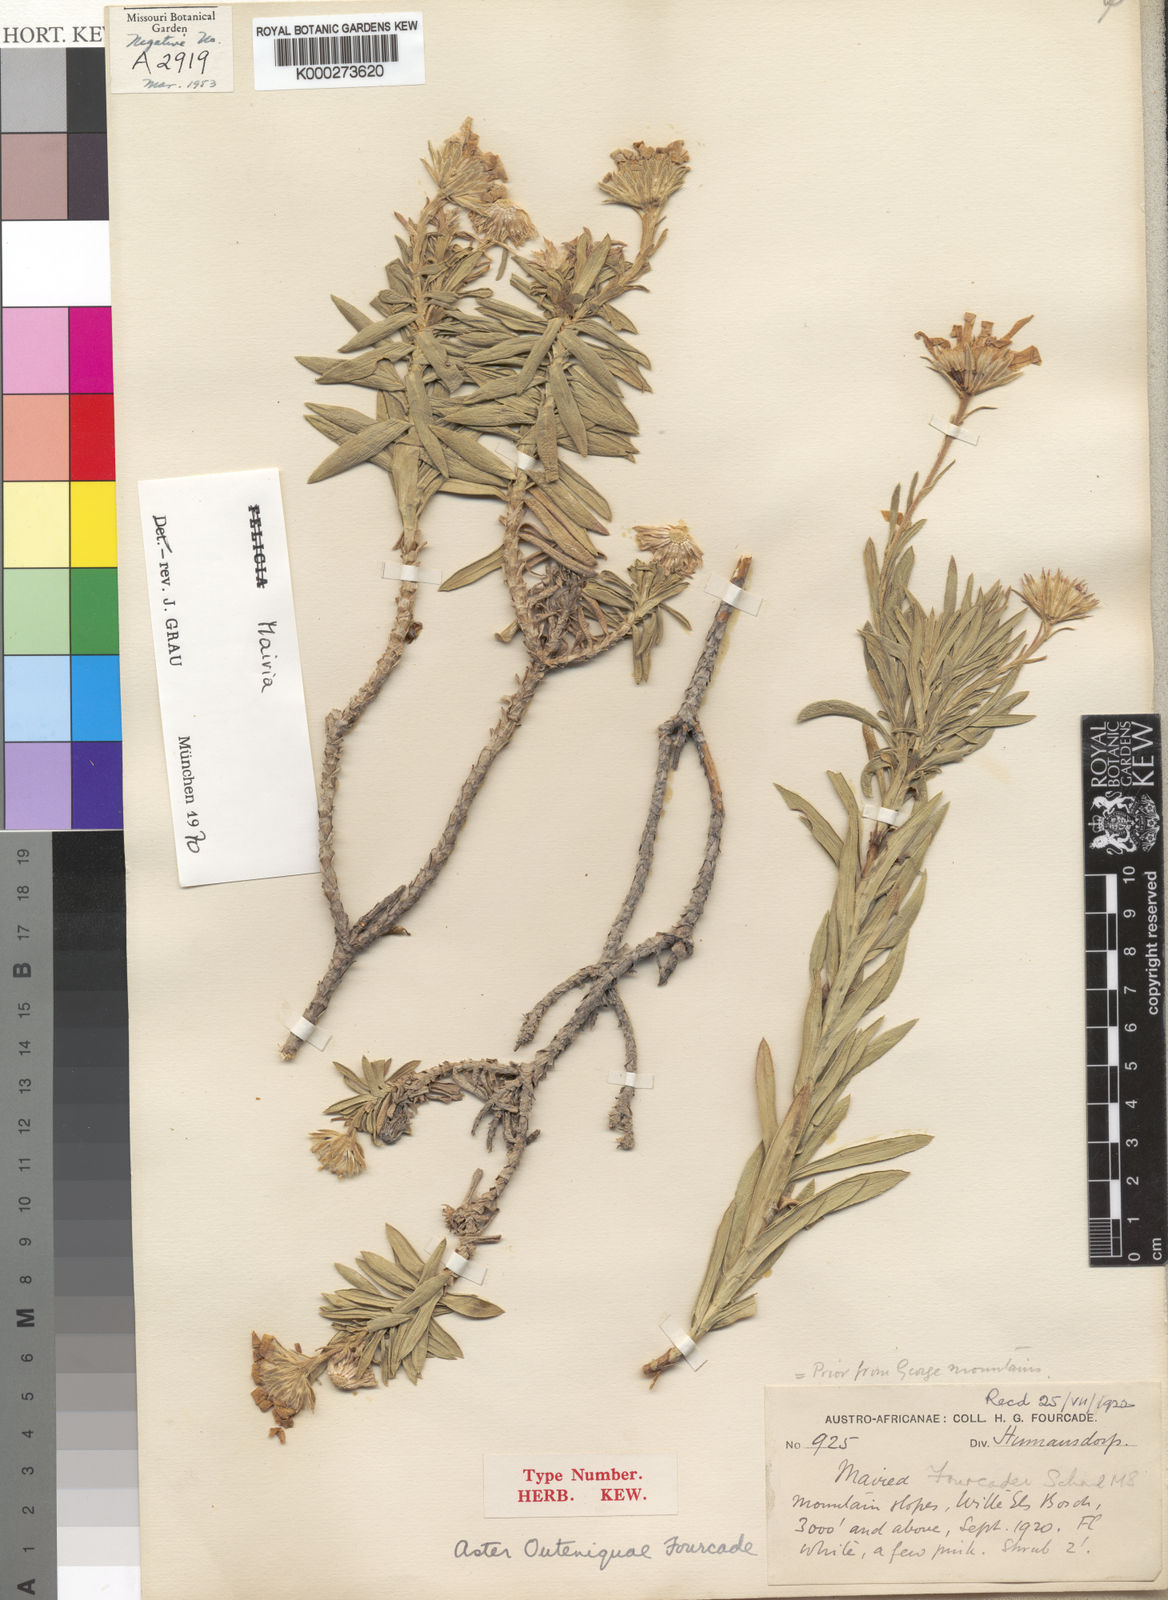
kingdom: Plantae
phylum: Tracheophyta
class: Magnoliopsida
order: Asterales
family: Asteraceae
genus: Mairia
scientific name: Mairia
